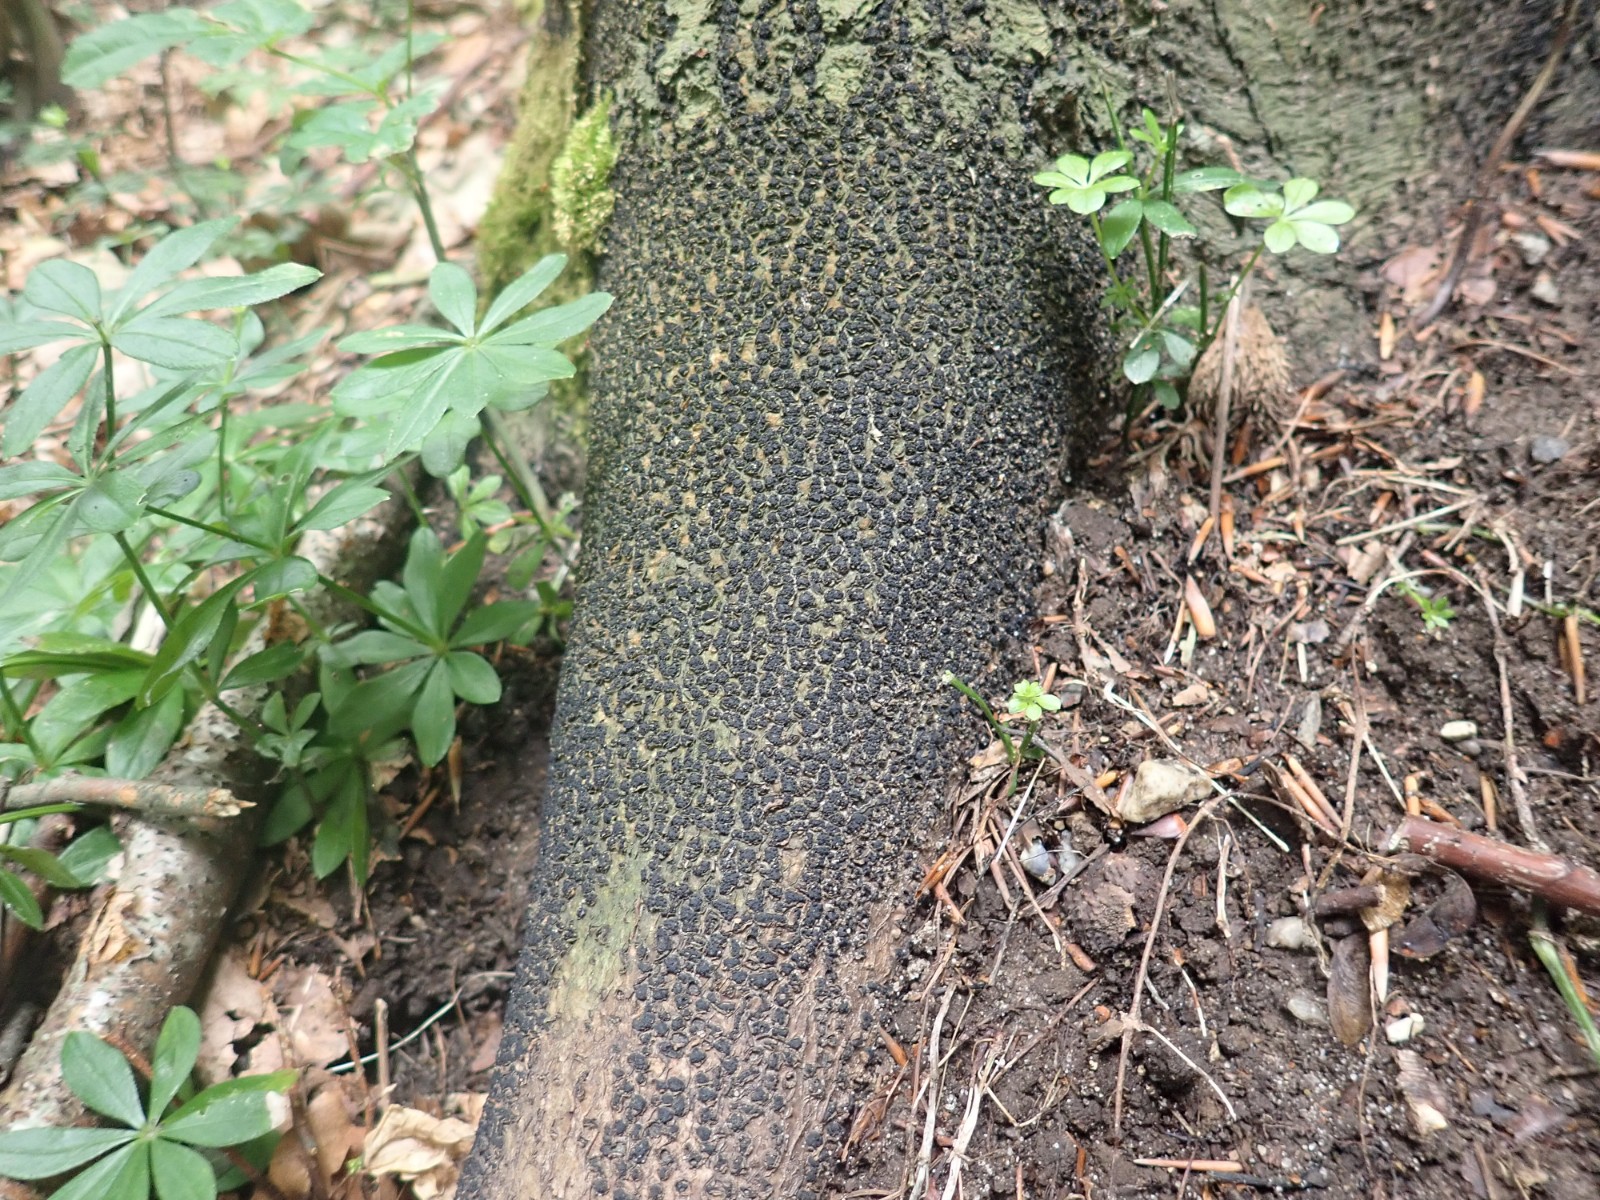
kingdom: Fungi
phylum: Ascomycota
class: Sordariomycetes
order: Xylariales
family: Melogrammataceae
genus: Melogramma
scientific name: Melogramma spiniferum
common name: bøgefod-kulhals
